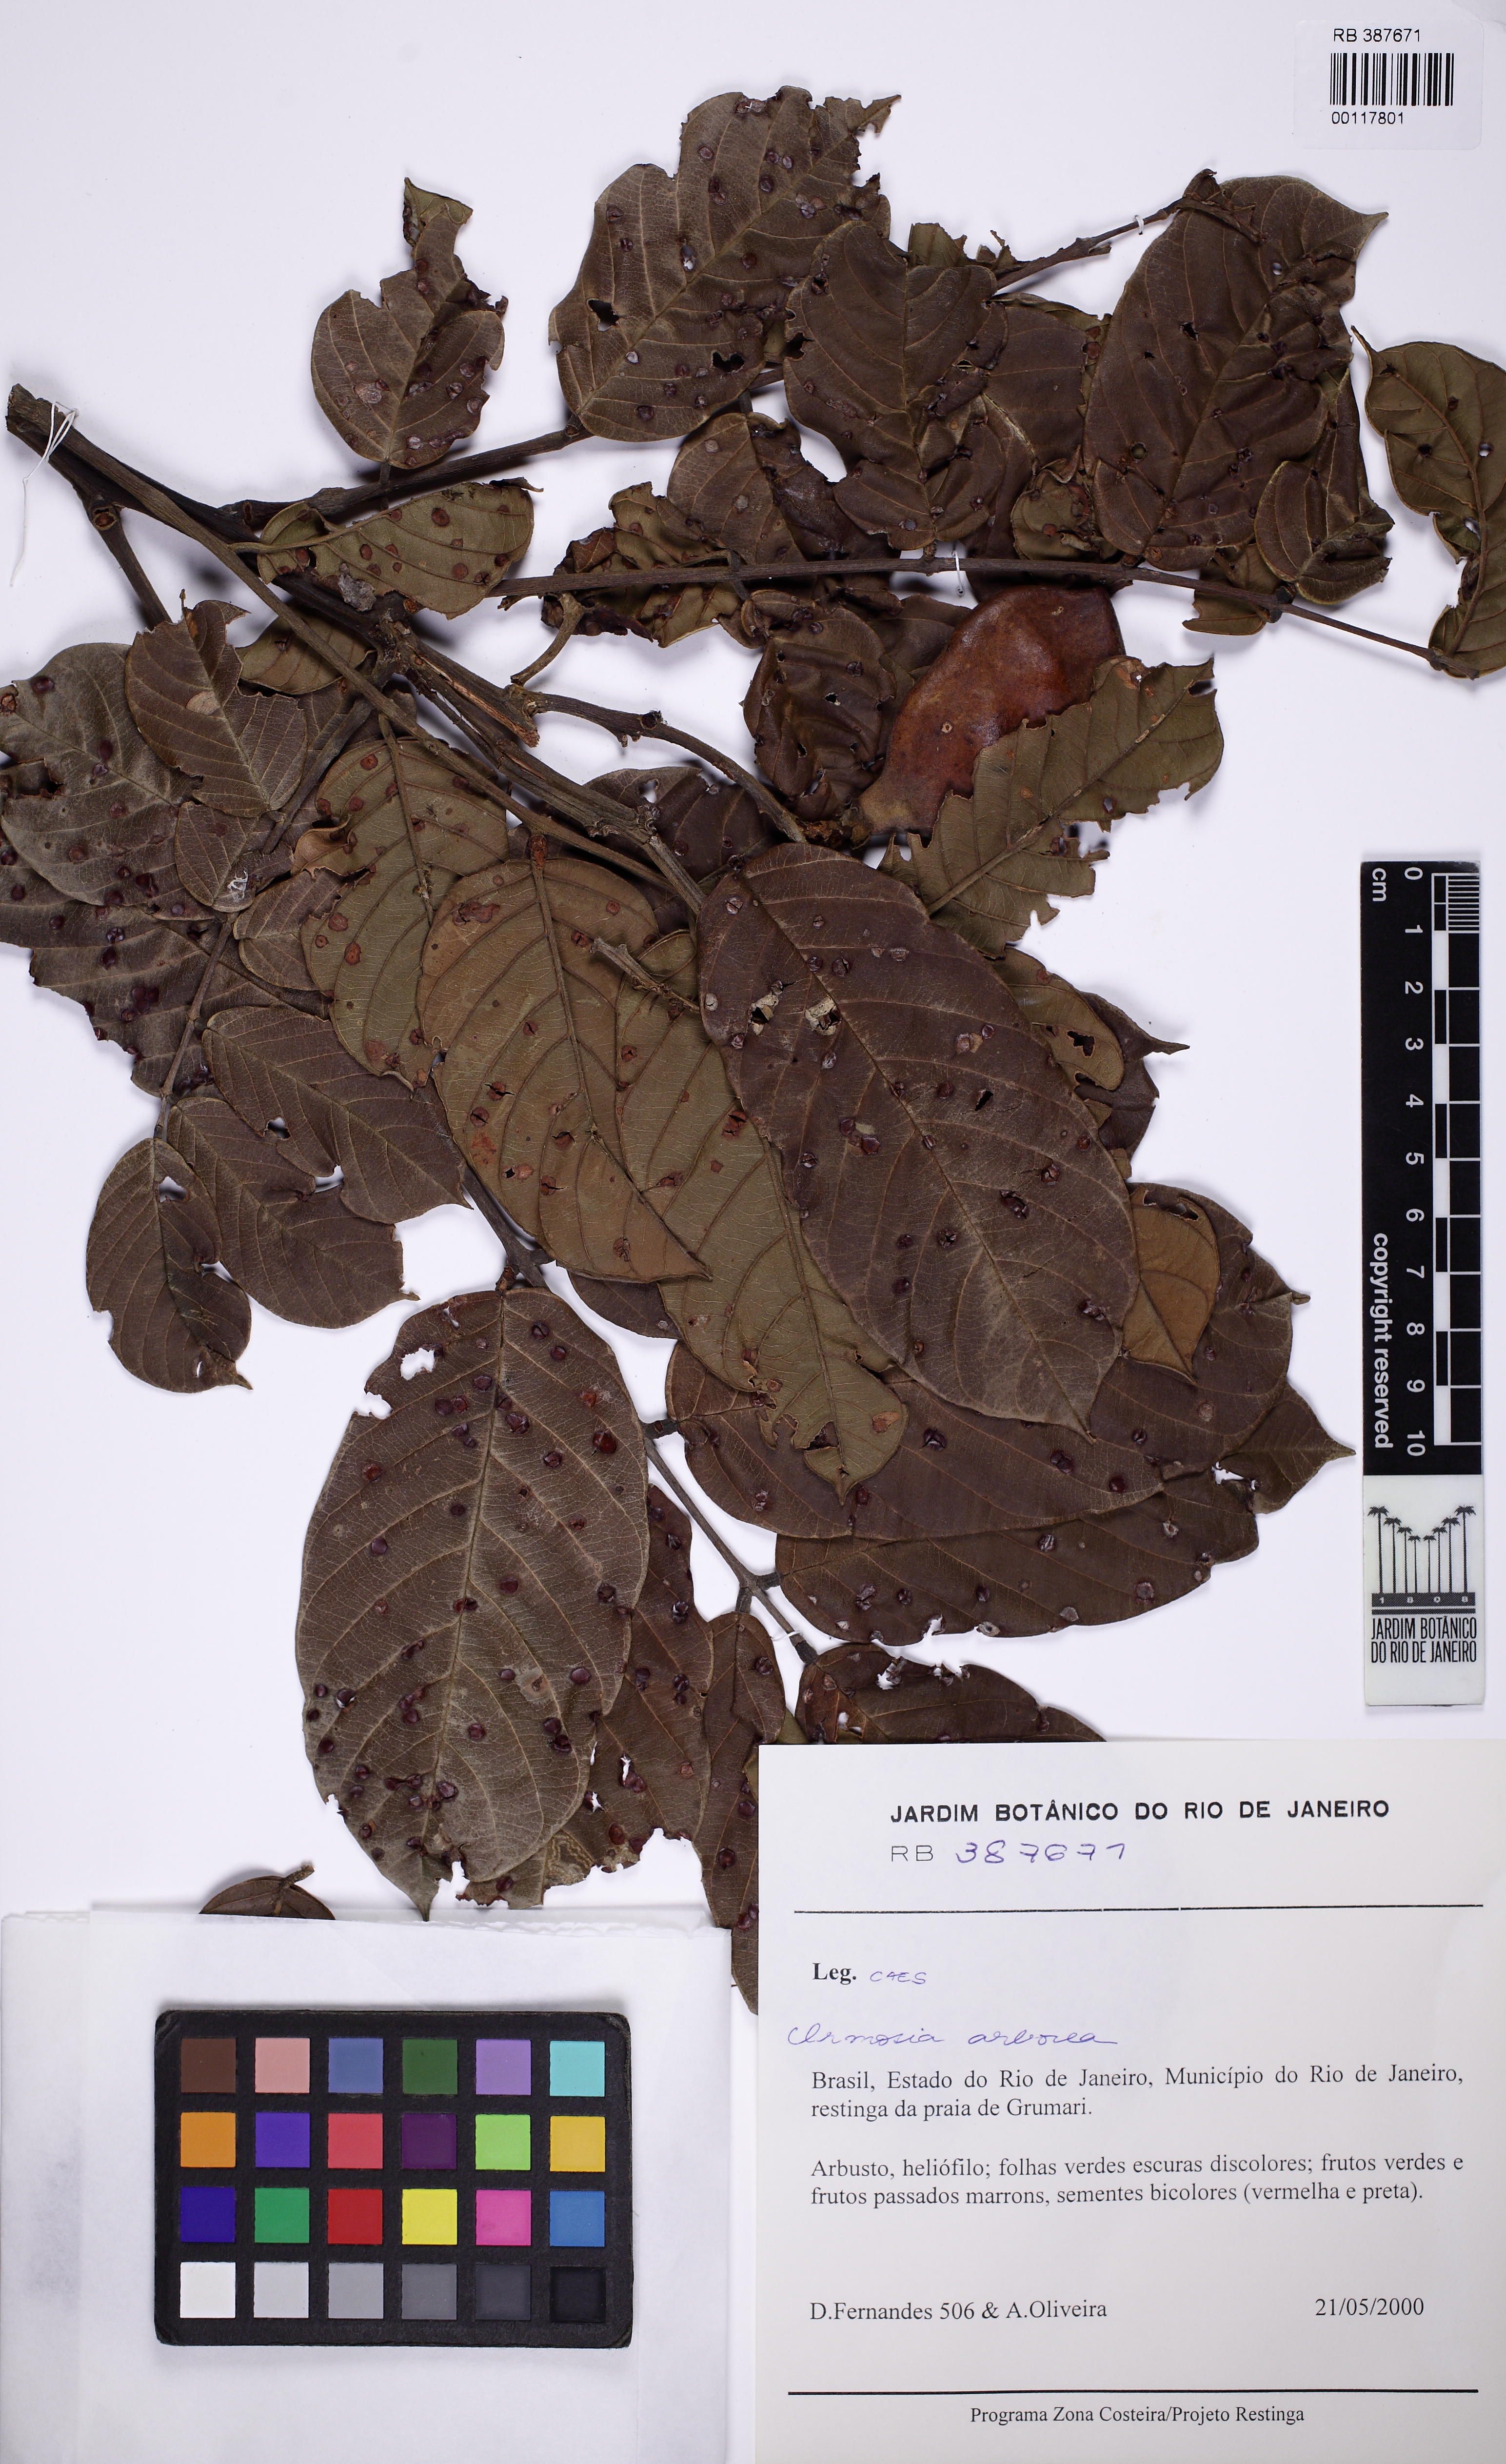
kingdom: Plantae
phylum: Tracheophyta
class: Magnoliopsida
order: Fabales
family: Fabaceae
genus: Ormosia
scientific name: Ormosia arborea
